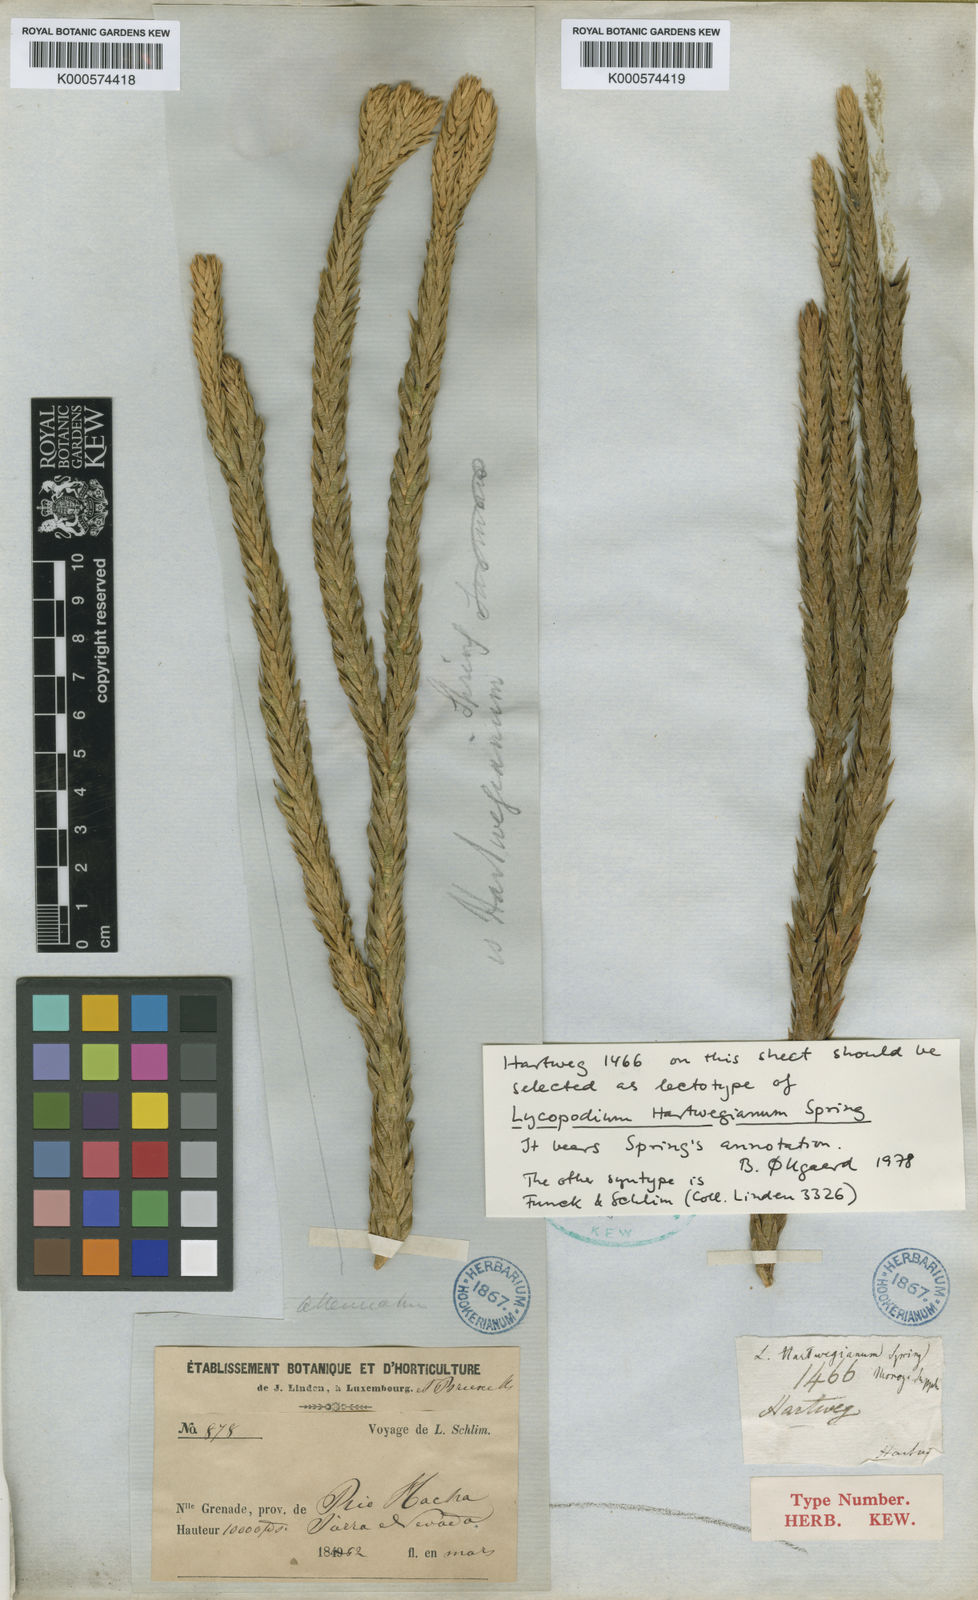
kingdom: Plantae
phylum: Tracheophyta
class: Lycopodiopsida
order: Lycopodiales
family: Lycopodiaceae
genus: Phlegmariurus
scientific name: Phlegmariurus hartwegianus
